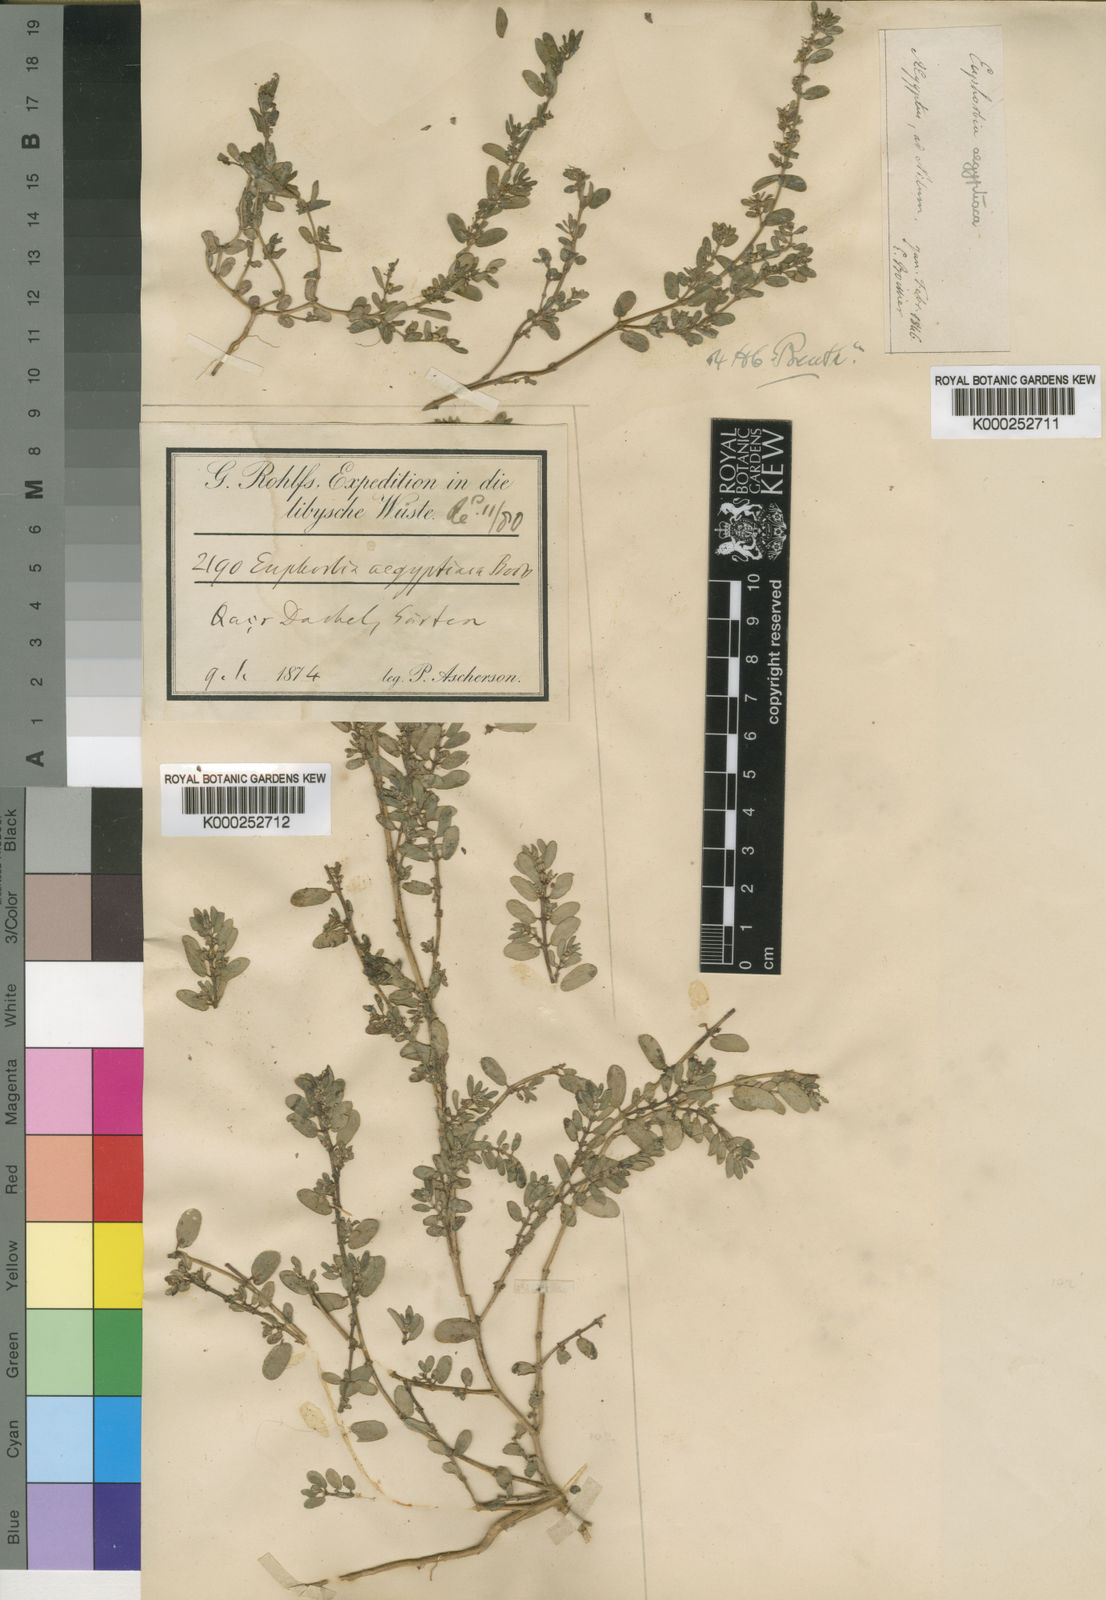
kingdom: Plantae
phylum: Tracheophyta
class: Magnoliopsida
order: Malpighiales
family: Euphorbiaceae
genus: Euphorbia
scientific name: Euphorbia
